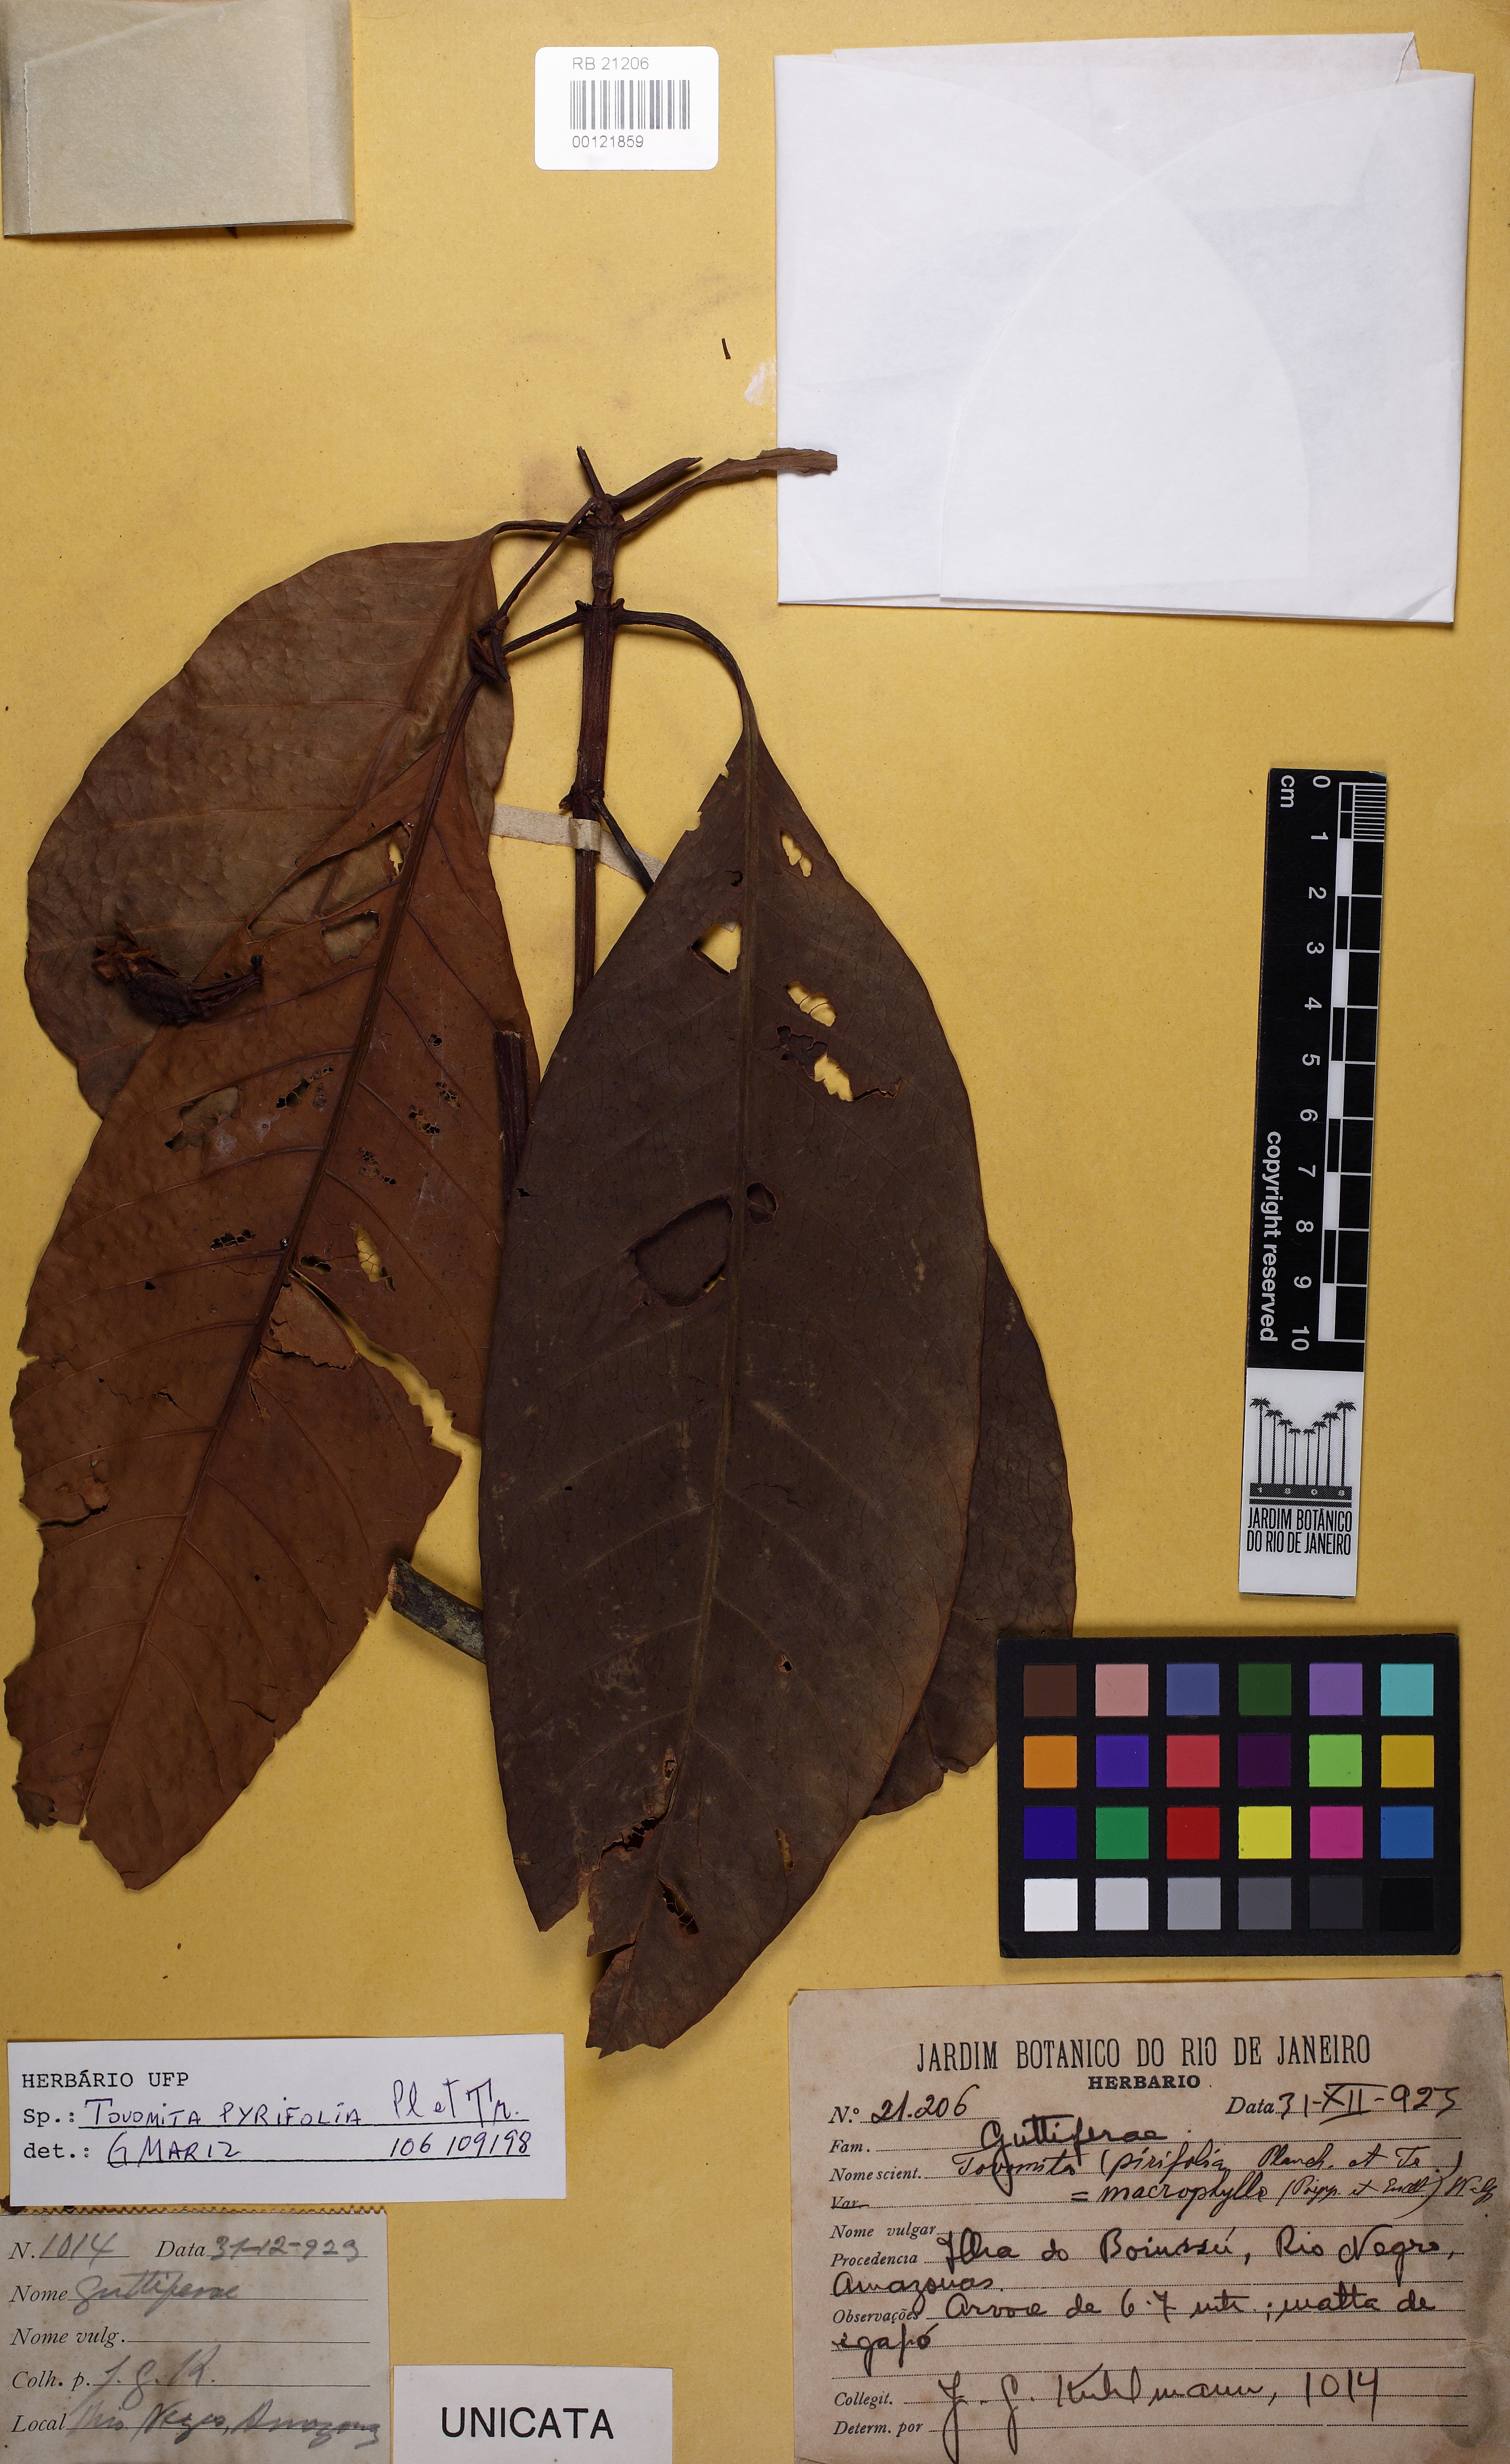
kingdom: Plantae
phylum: Tracheophyta
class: Magnoliopsida
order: Malpighiales
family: Clusiaceae
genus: Tovomita
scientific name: Tovomita macrophylla
